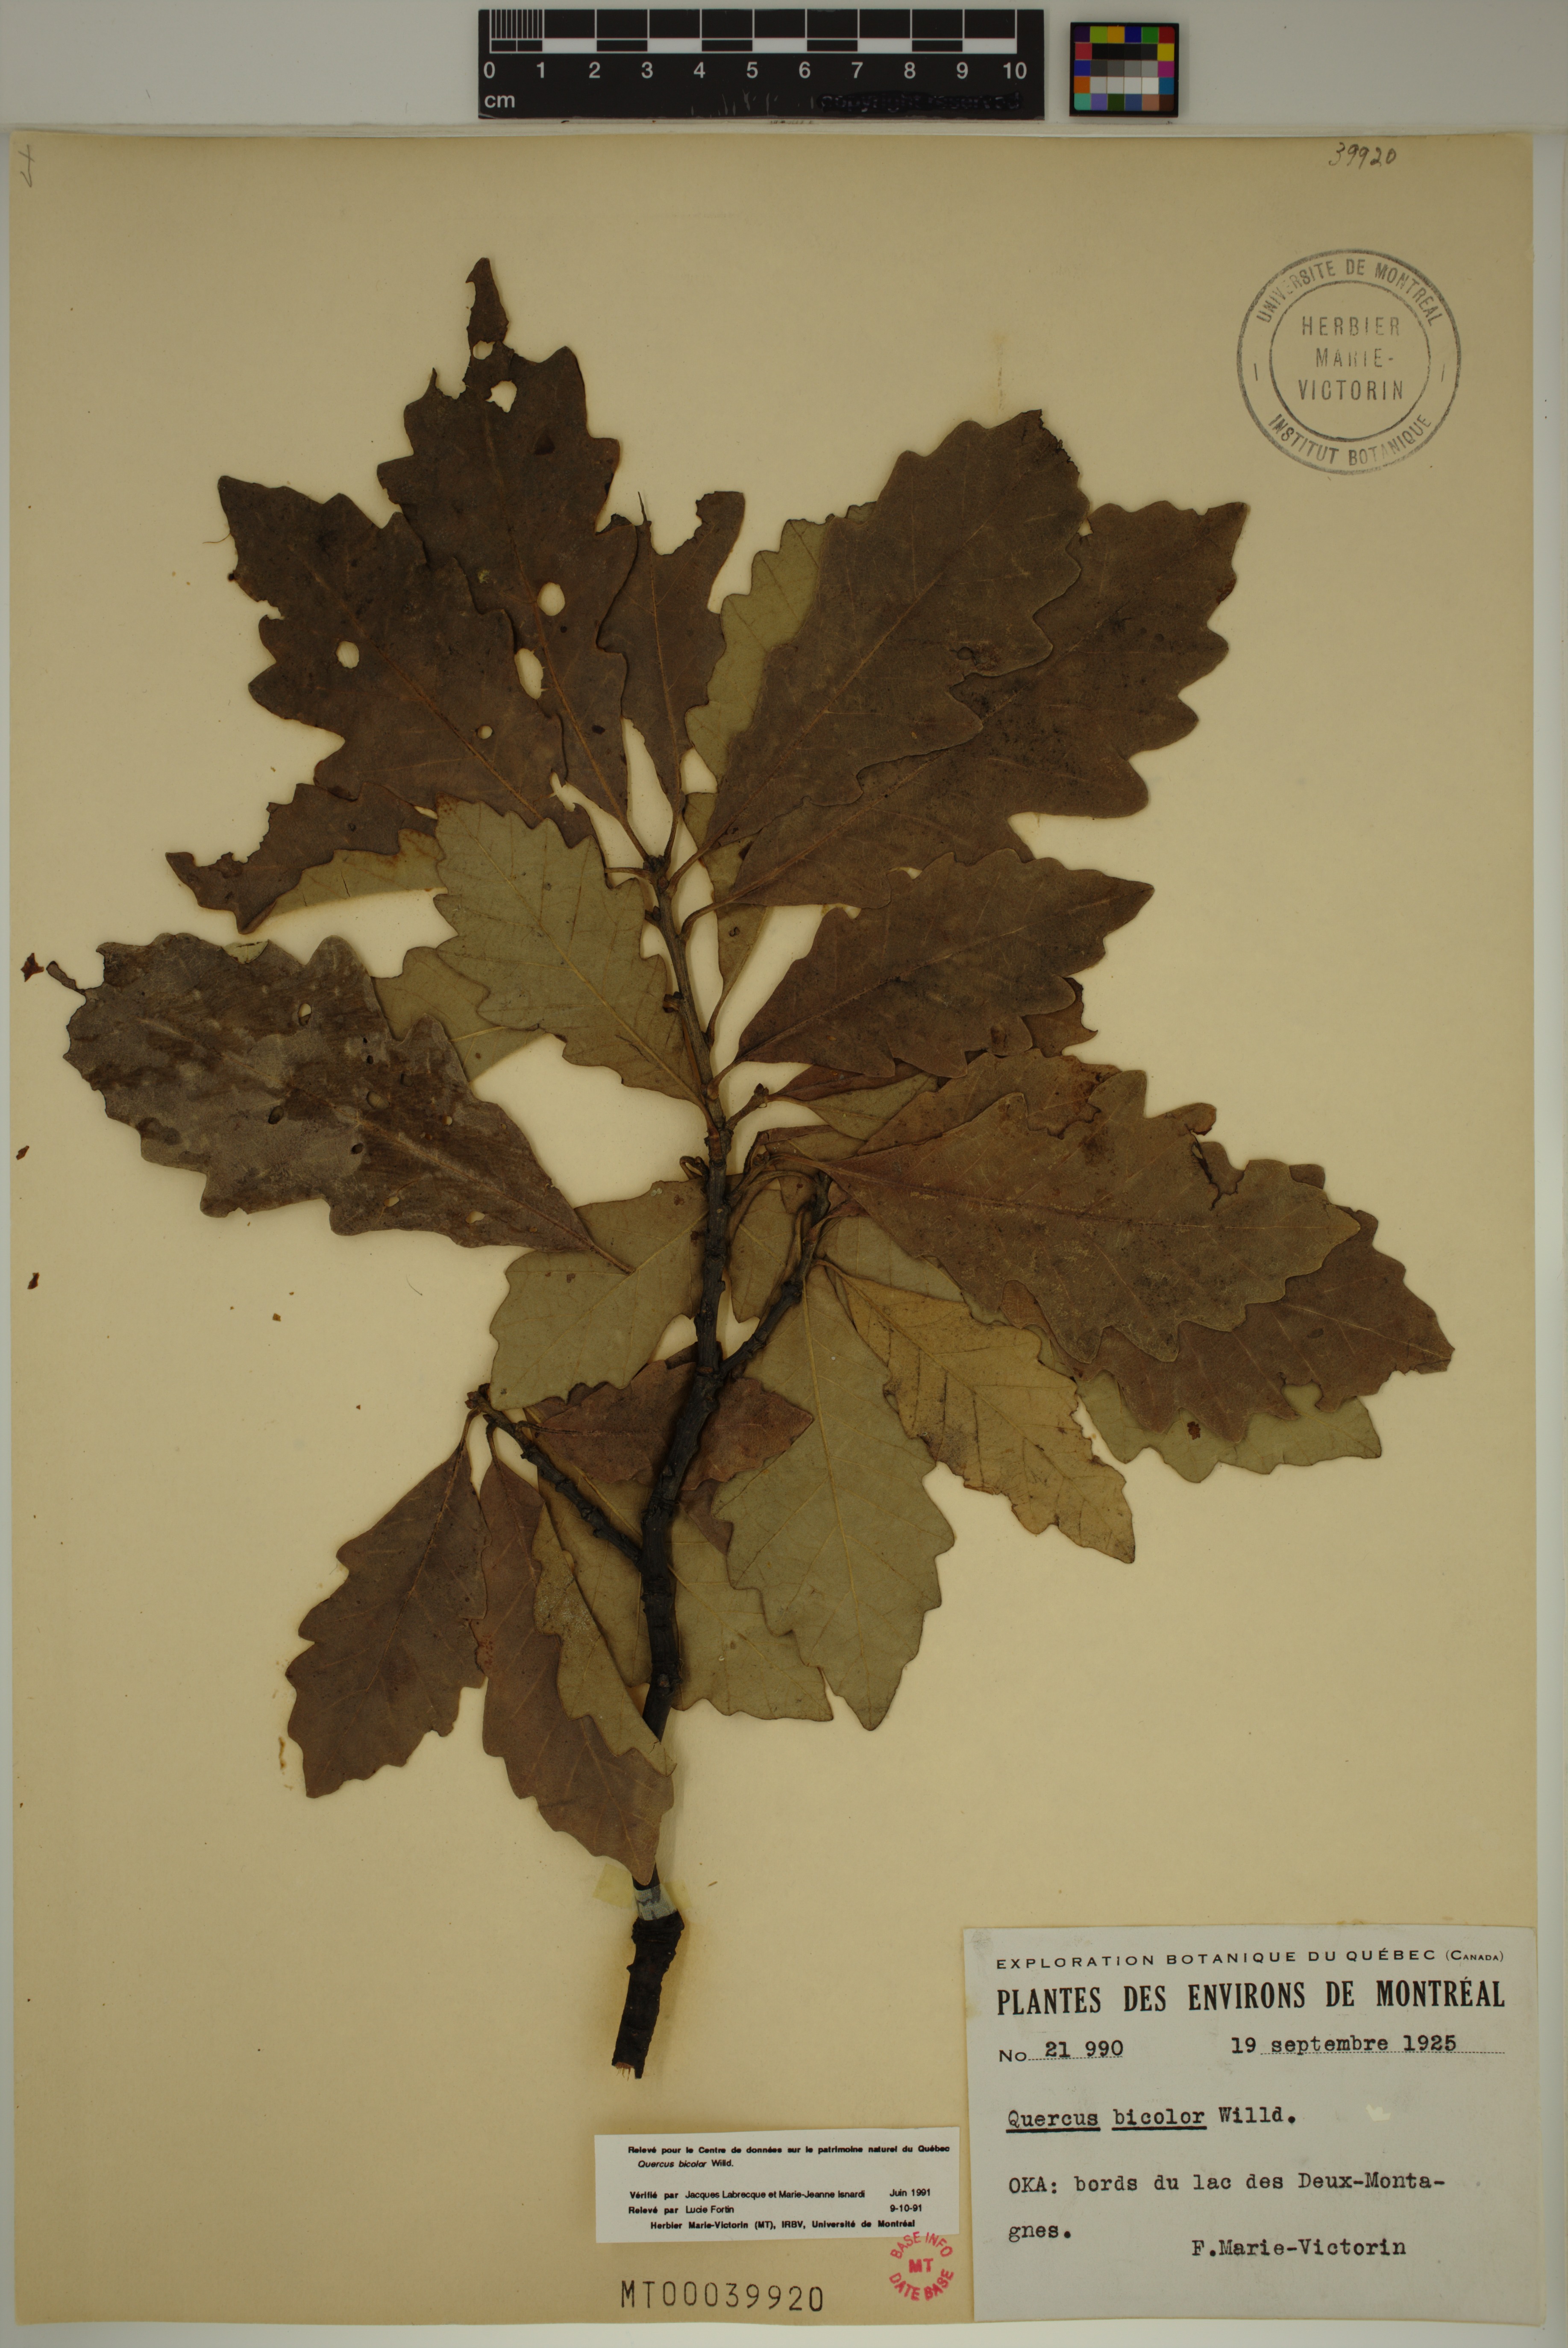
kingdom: Plantae
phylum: Tracheophyta
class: Magnoliopsida
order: Fagales
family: Fagaceae
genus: Quercus
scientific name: Quercus bicolor
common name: Swamp white oak
